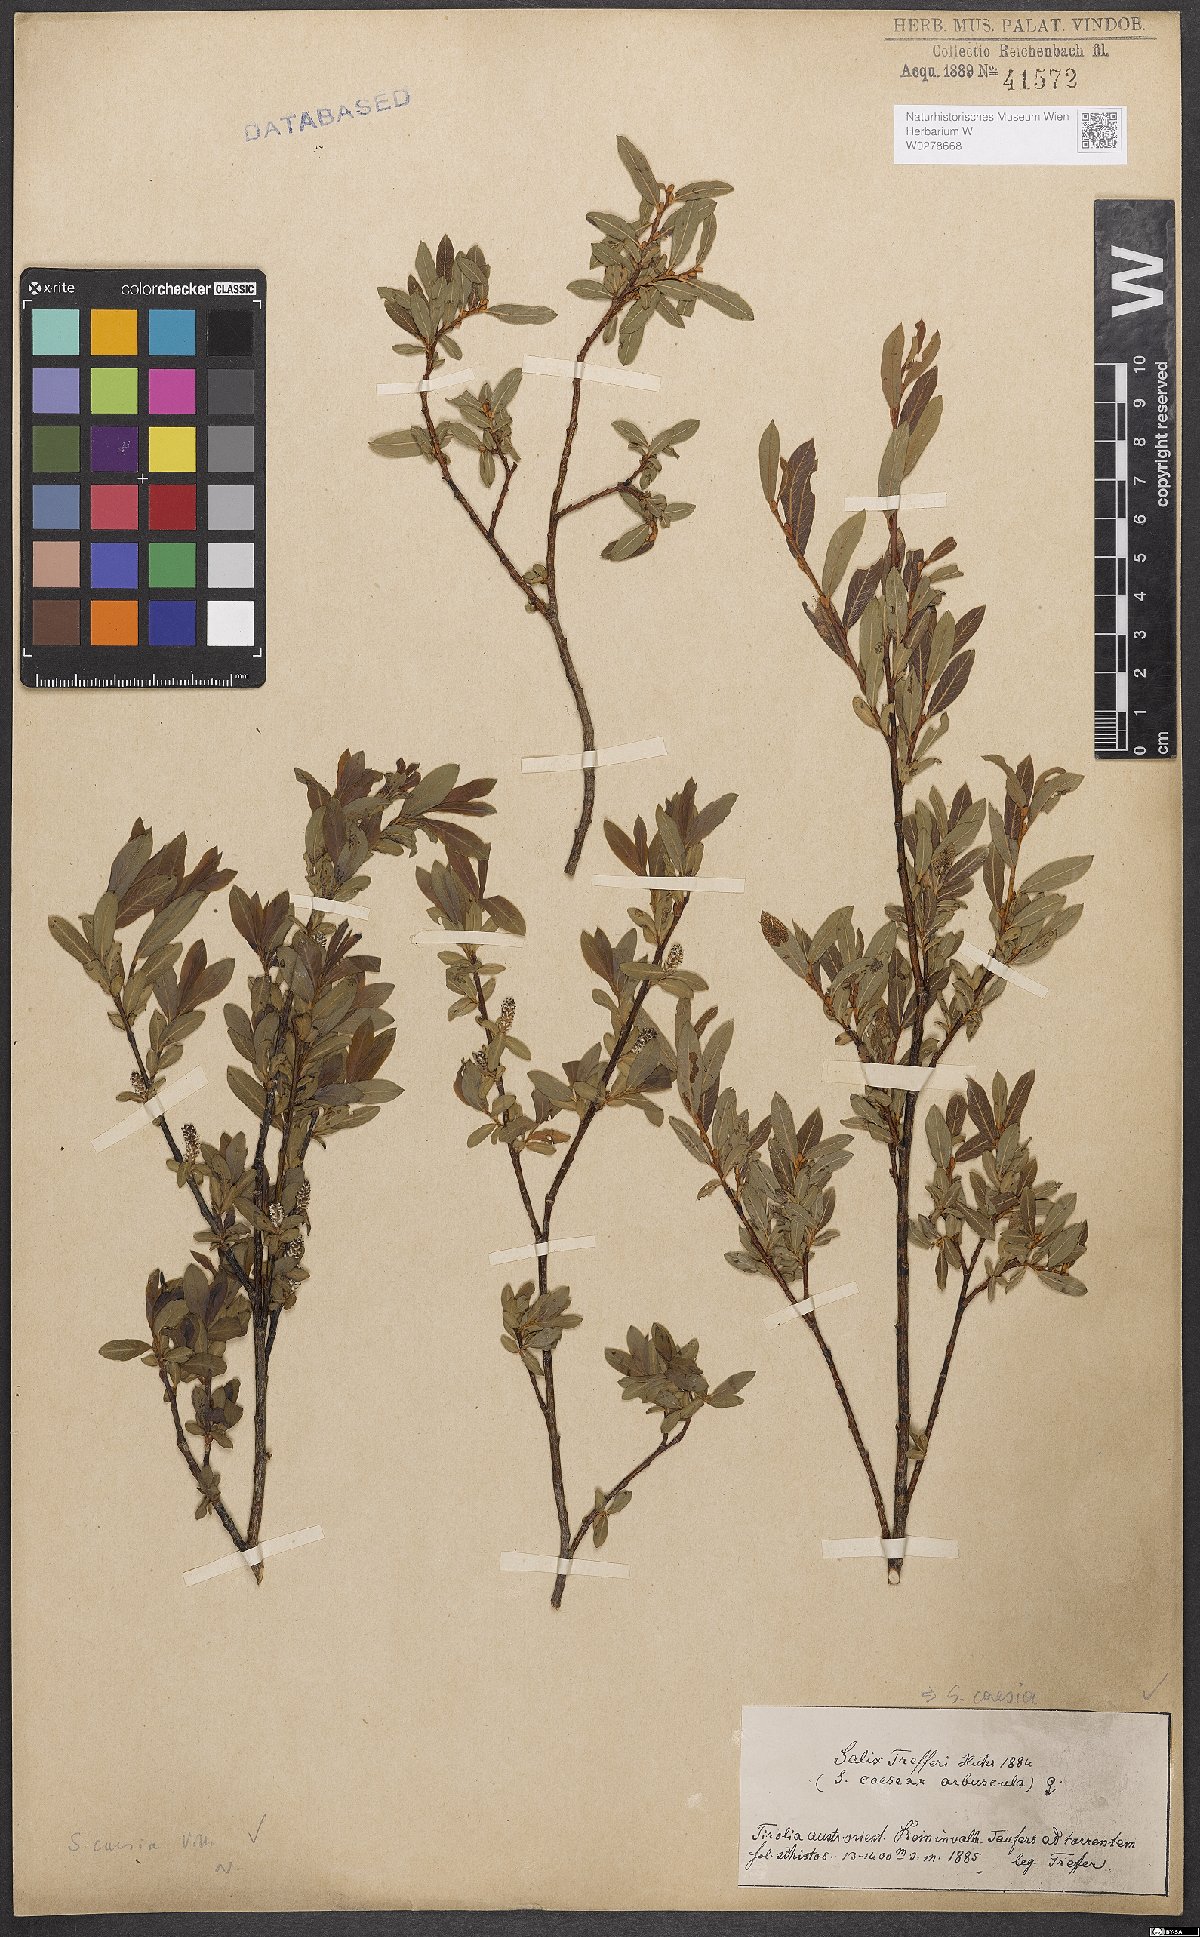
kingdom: Plantae
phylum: Tracheophyta
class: Magnoliopsida
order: Malpighiales
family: Salicaceae
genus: Salix
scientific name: Salix caesia
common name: Blue willow
